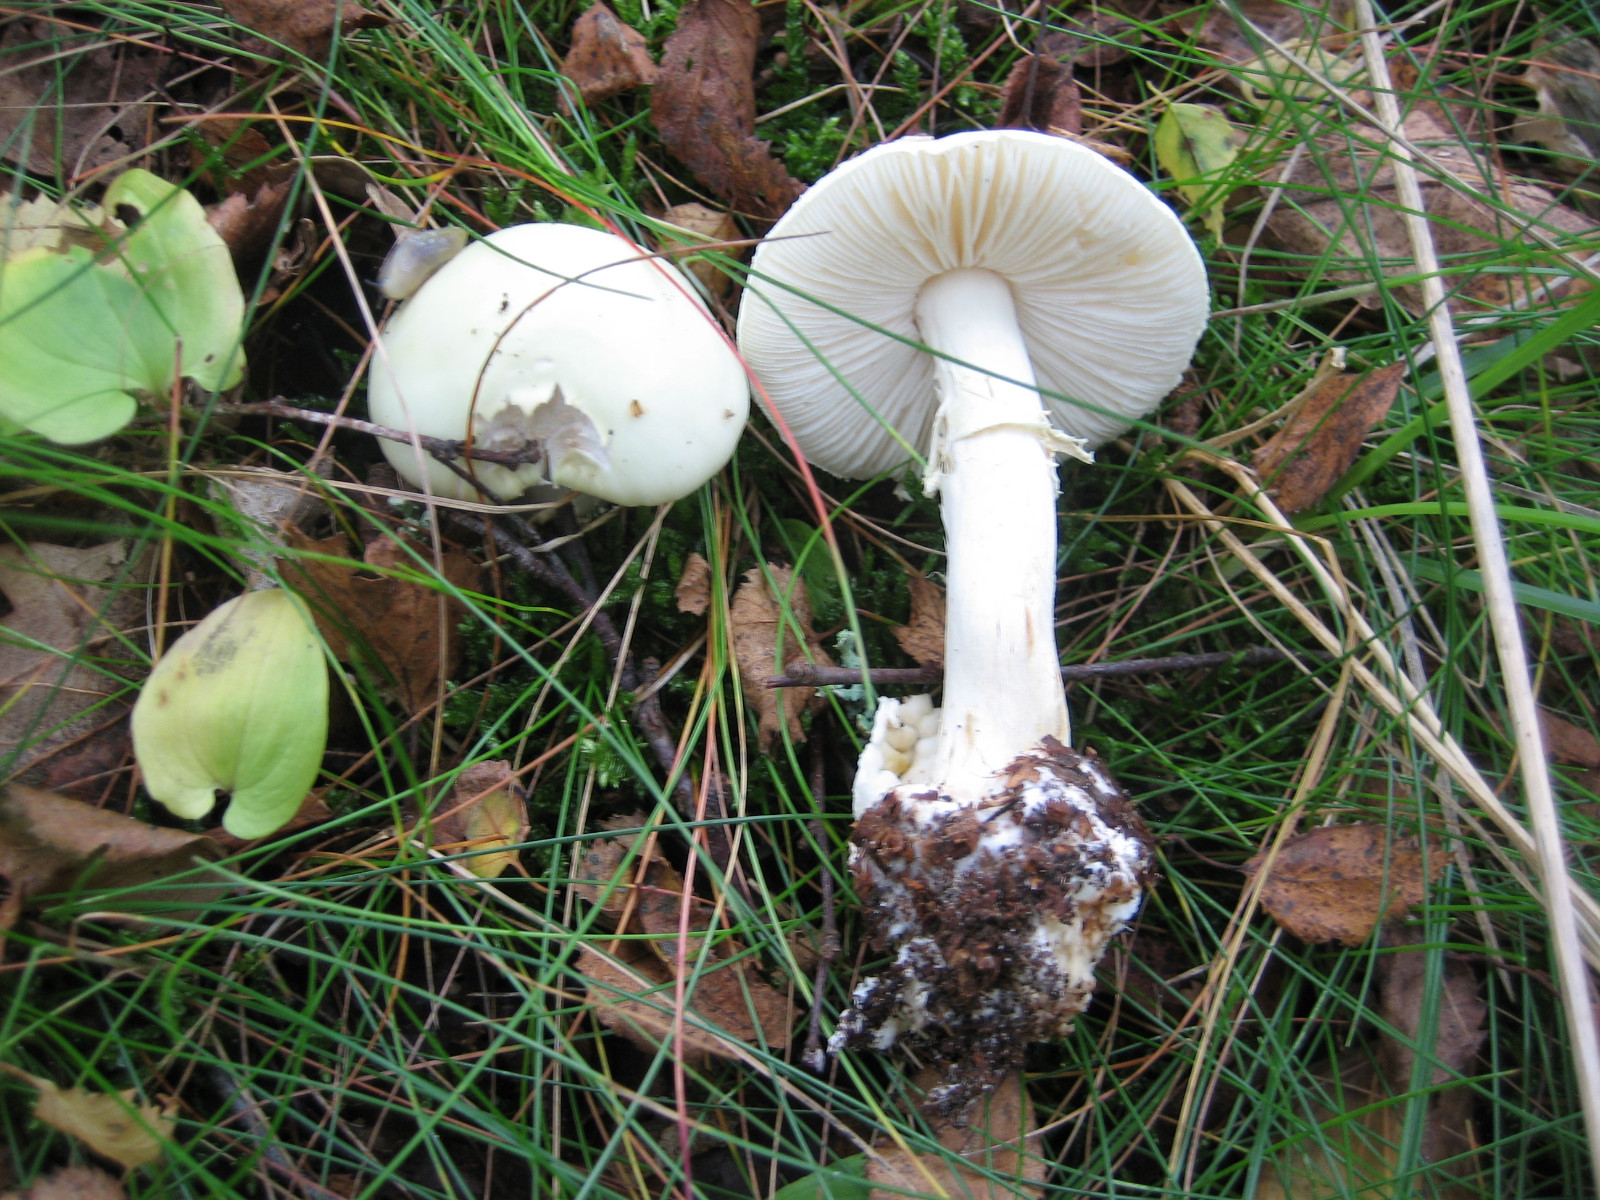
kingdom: Fungi
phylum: Basidiomycota
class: Agaricomycetes
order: Agaricales
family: Amanitaceae
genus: Amanita
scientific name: Amanita citrina
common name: kugleknoldet fluesvamp
